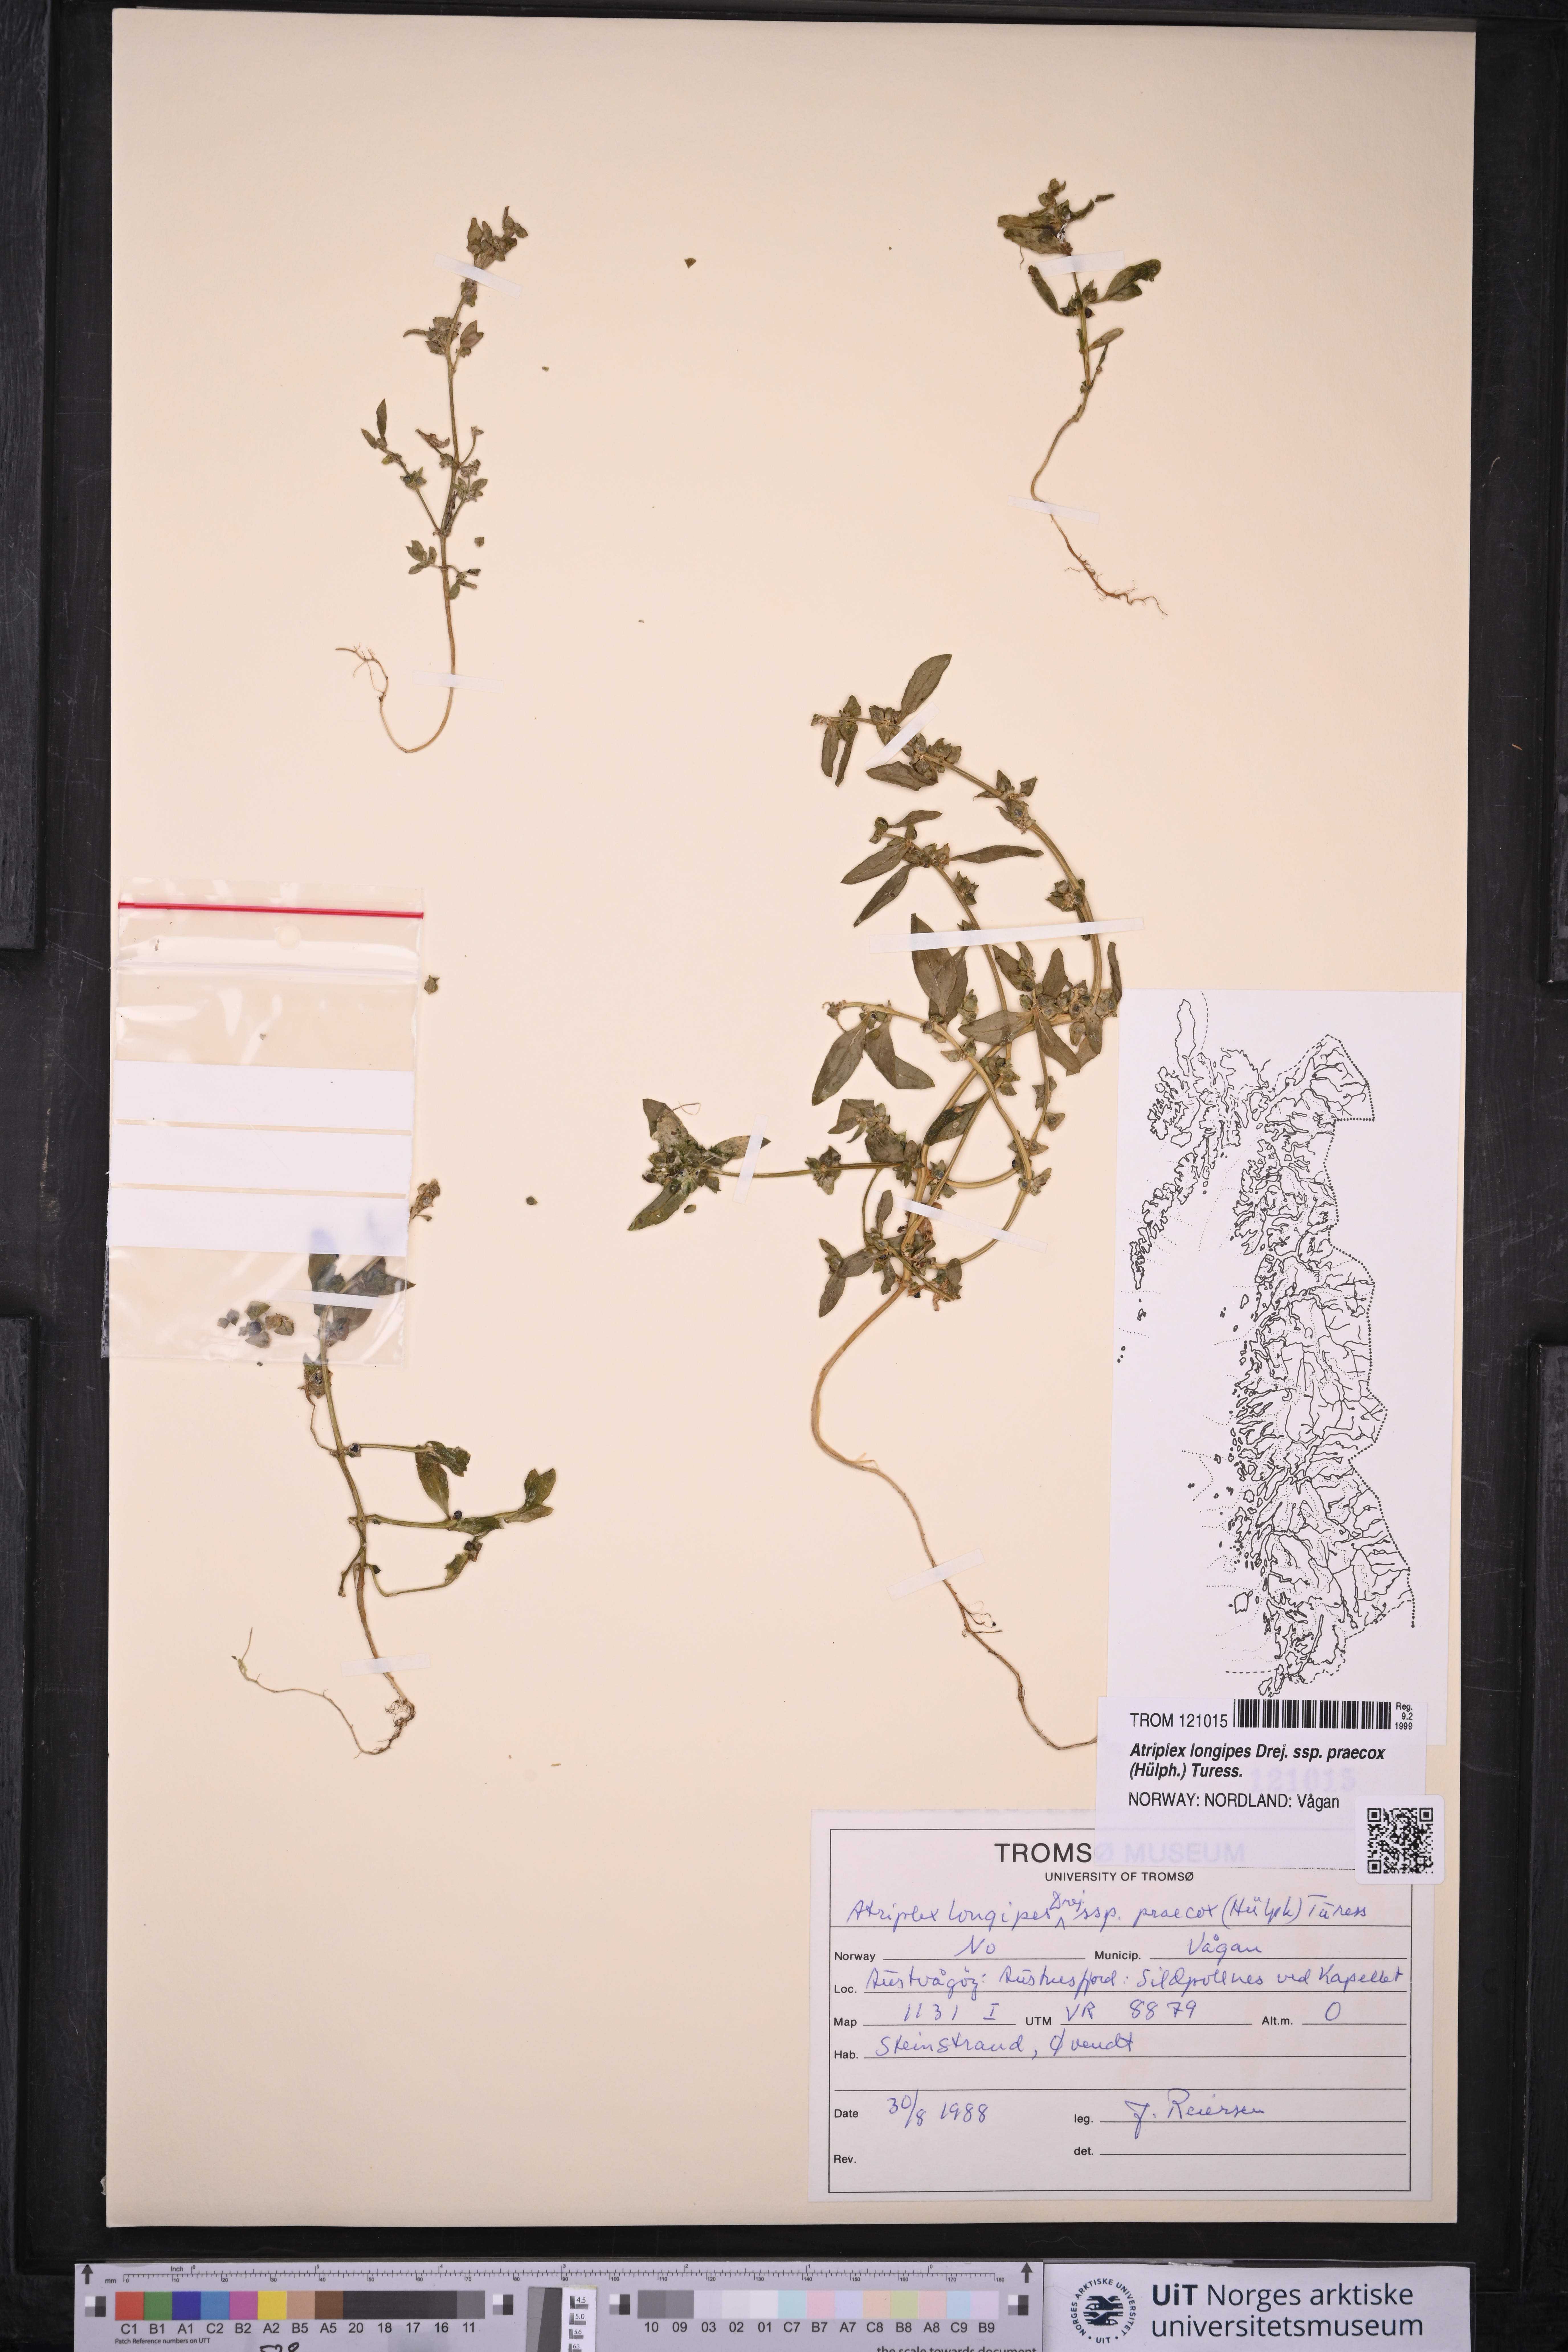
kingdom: Plantae
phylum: Tracheophyta
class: Magnoliopsida
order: Caryophyllales
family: Amaranthaceae
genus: Atriplex
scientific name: Atriplex praecox
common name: Early orache
